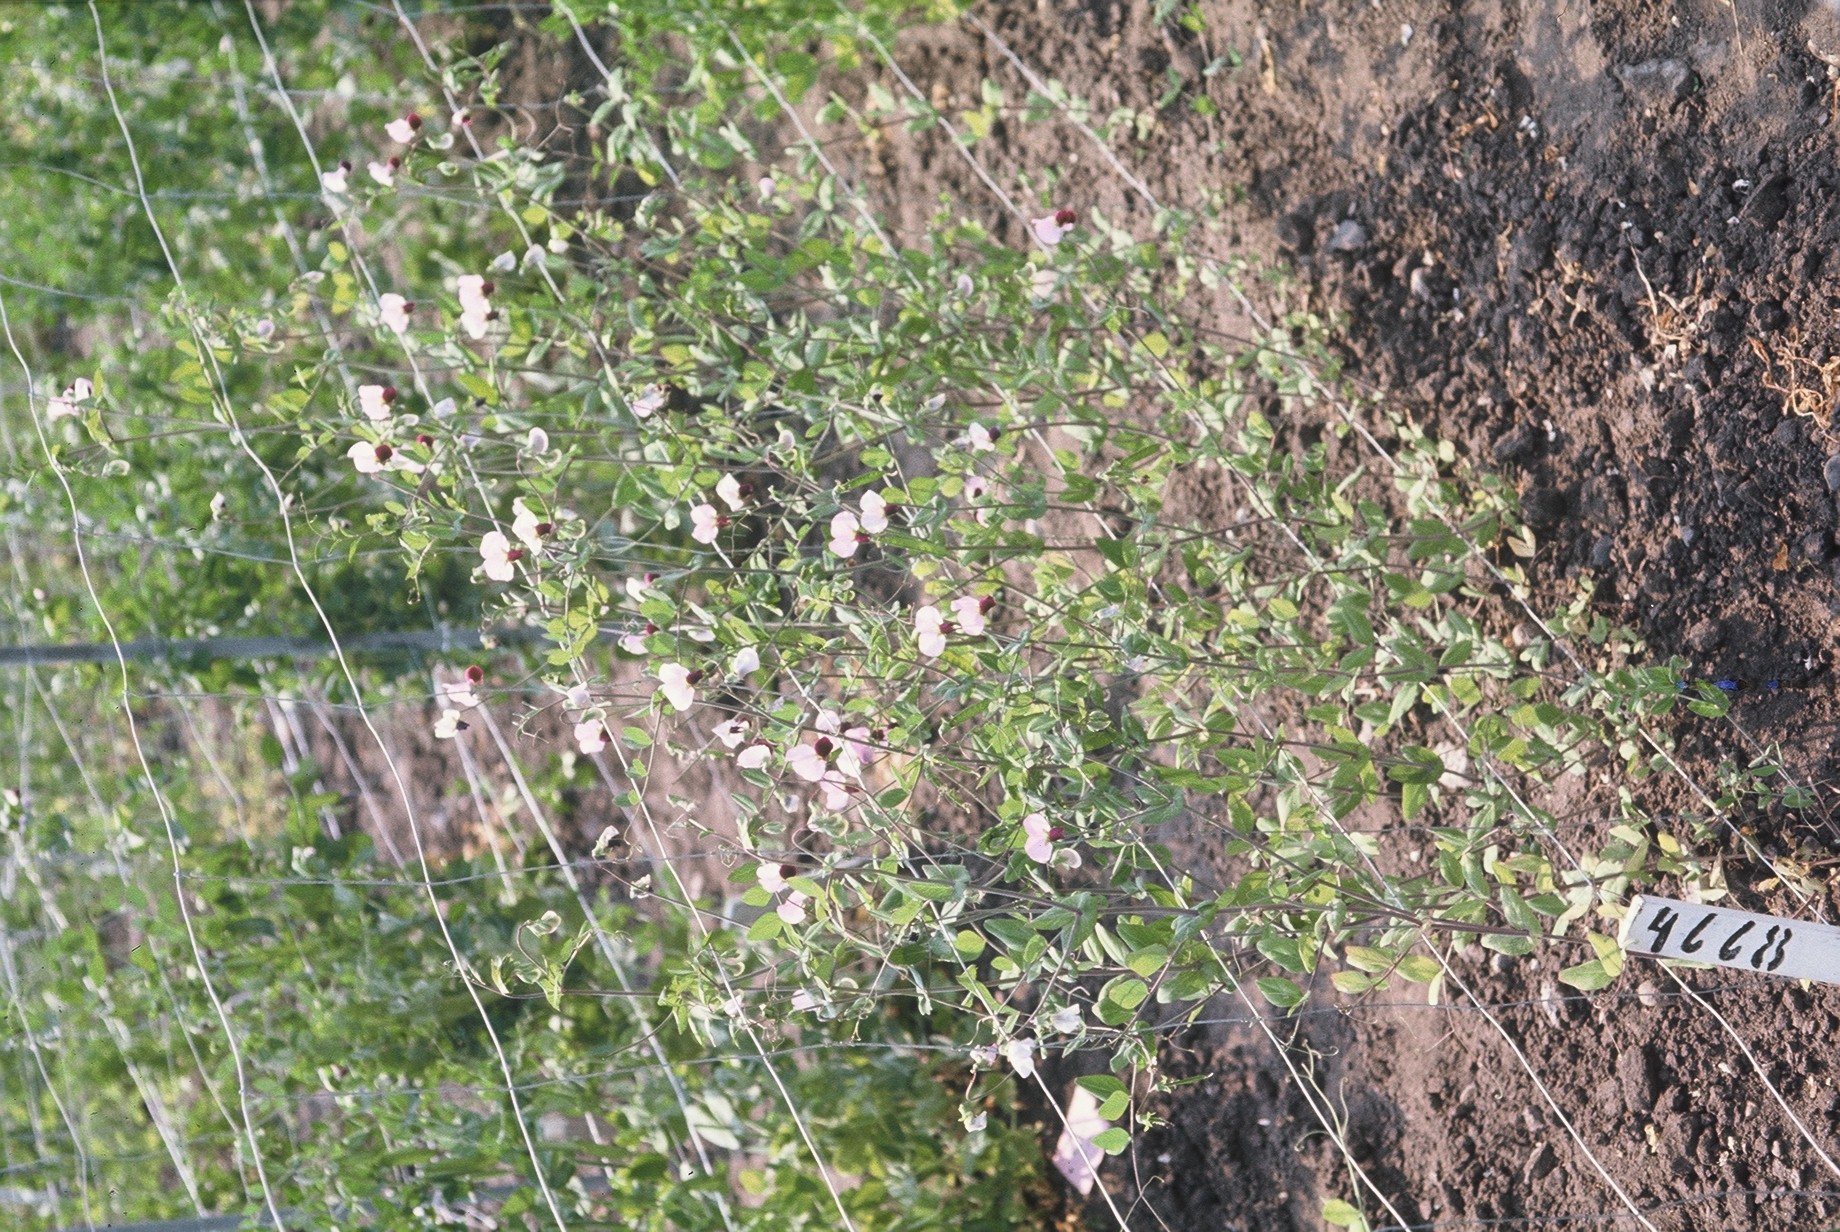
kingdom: Plantae
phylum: Tracheophyta
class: Magnoliopsida
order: Fabales
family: Fabaceae
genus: Lathyrus
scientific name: Lathyrus oleraceus
